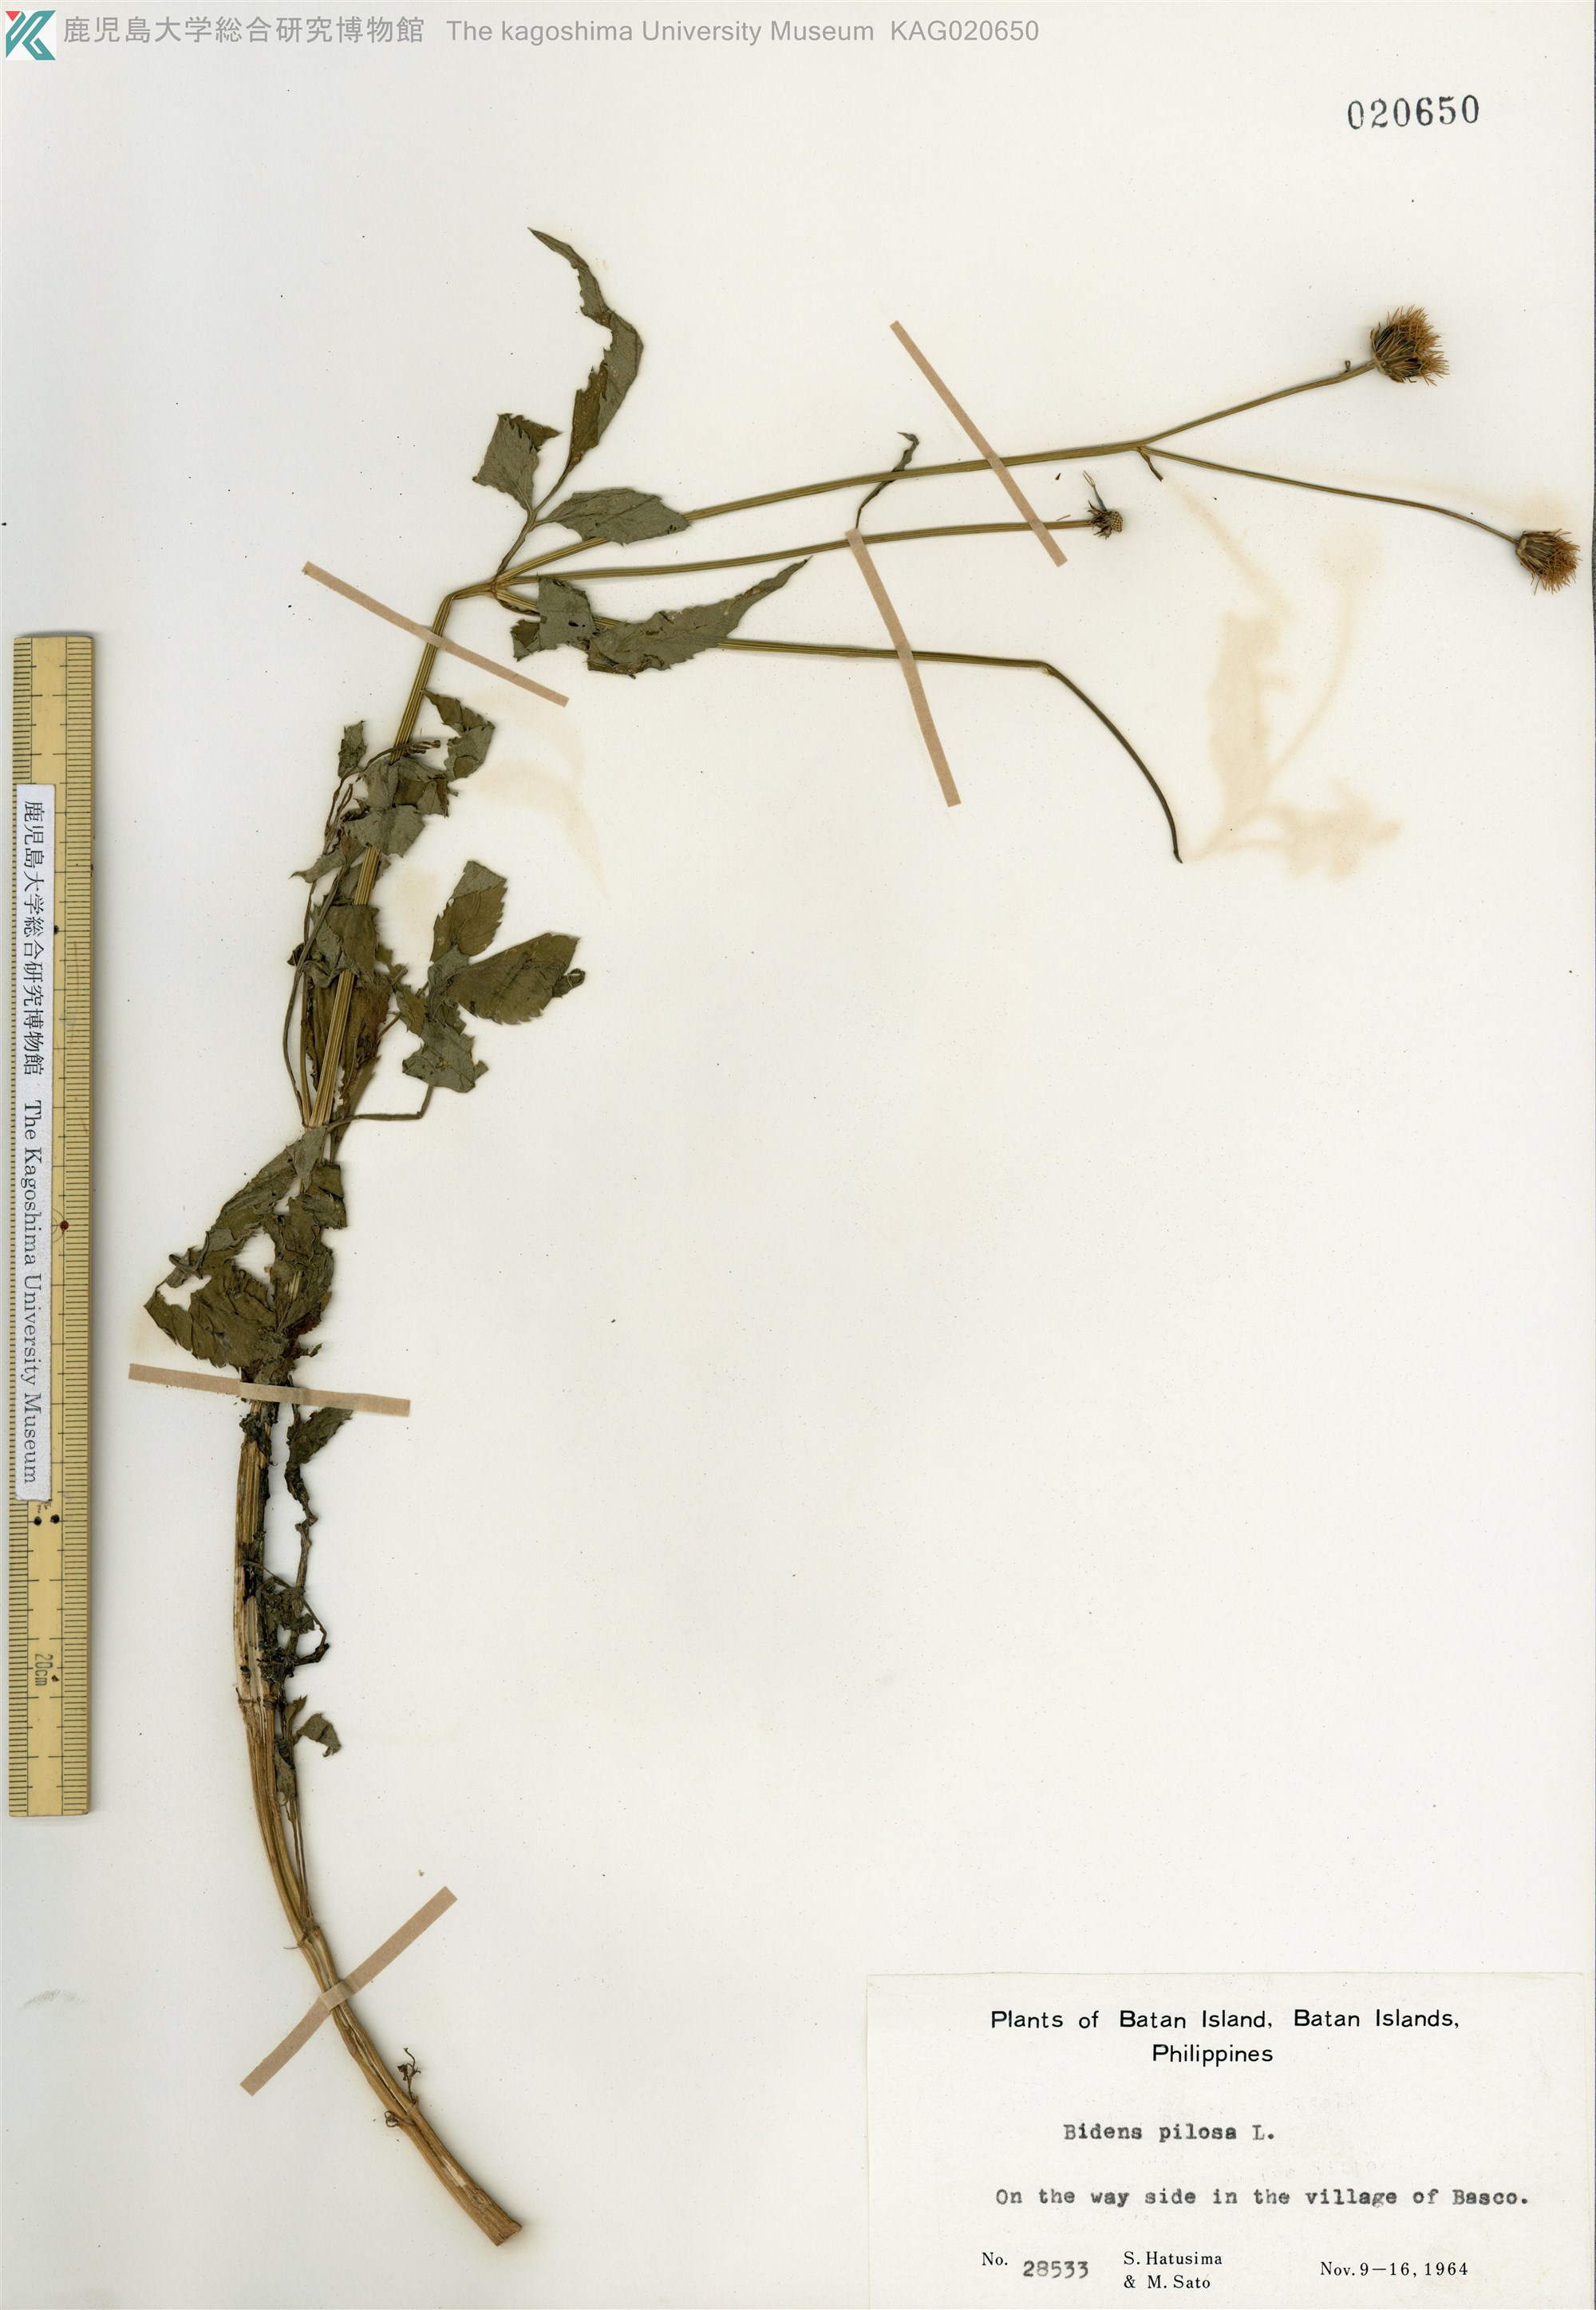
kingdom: Plantae
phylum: Tracheophyta
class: Magnoliopsida
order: Asterales
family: Asteraceae
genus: Bidens
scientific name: Bidens pilosa
